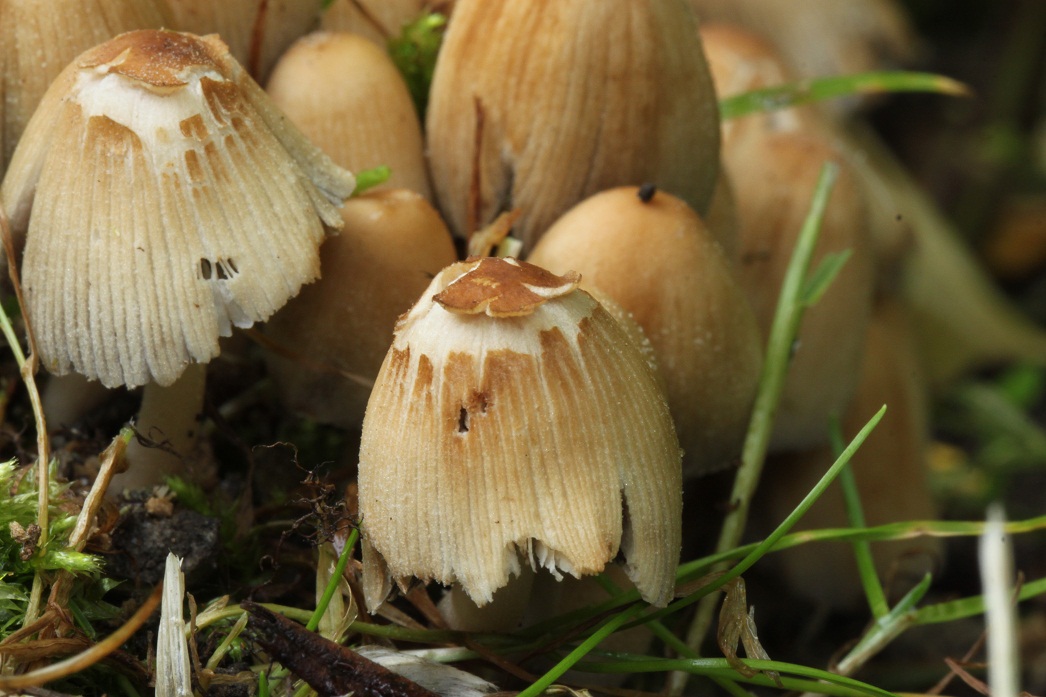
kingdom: Fungi
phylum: Basidiomycota
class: Agaricomycetes
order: Agaricales
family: Psathyrellaceae
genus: Coprinellus
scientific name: Coprinellus micaceus
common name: glimmer-blækhat
